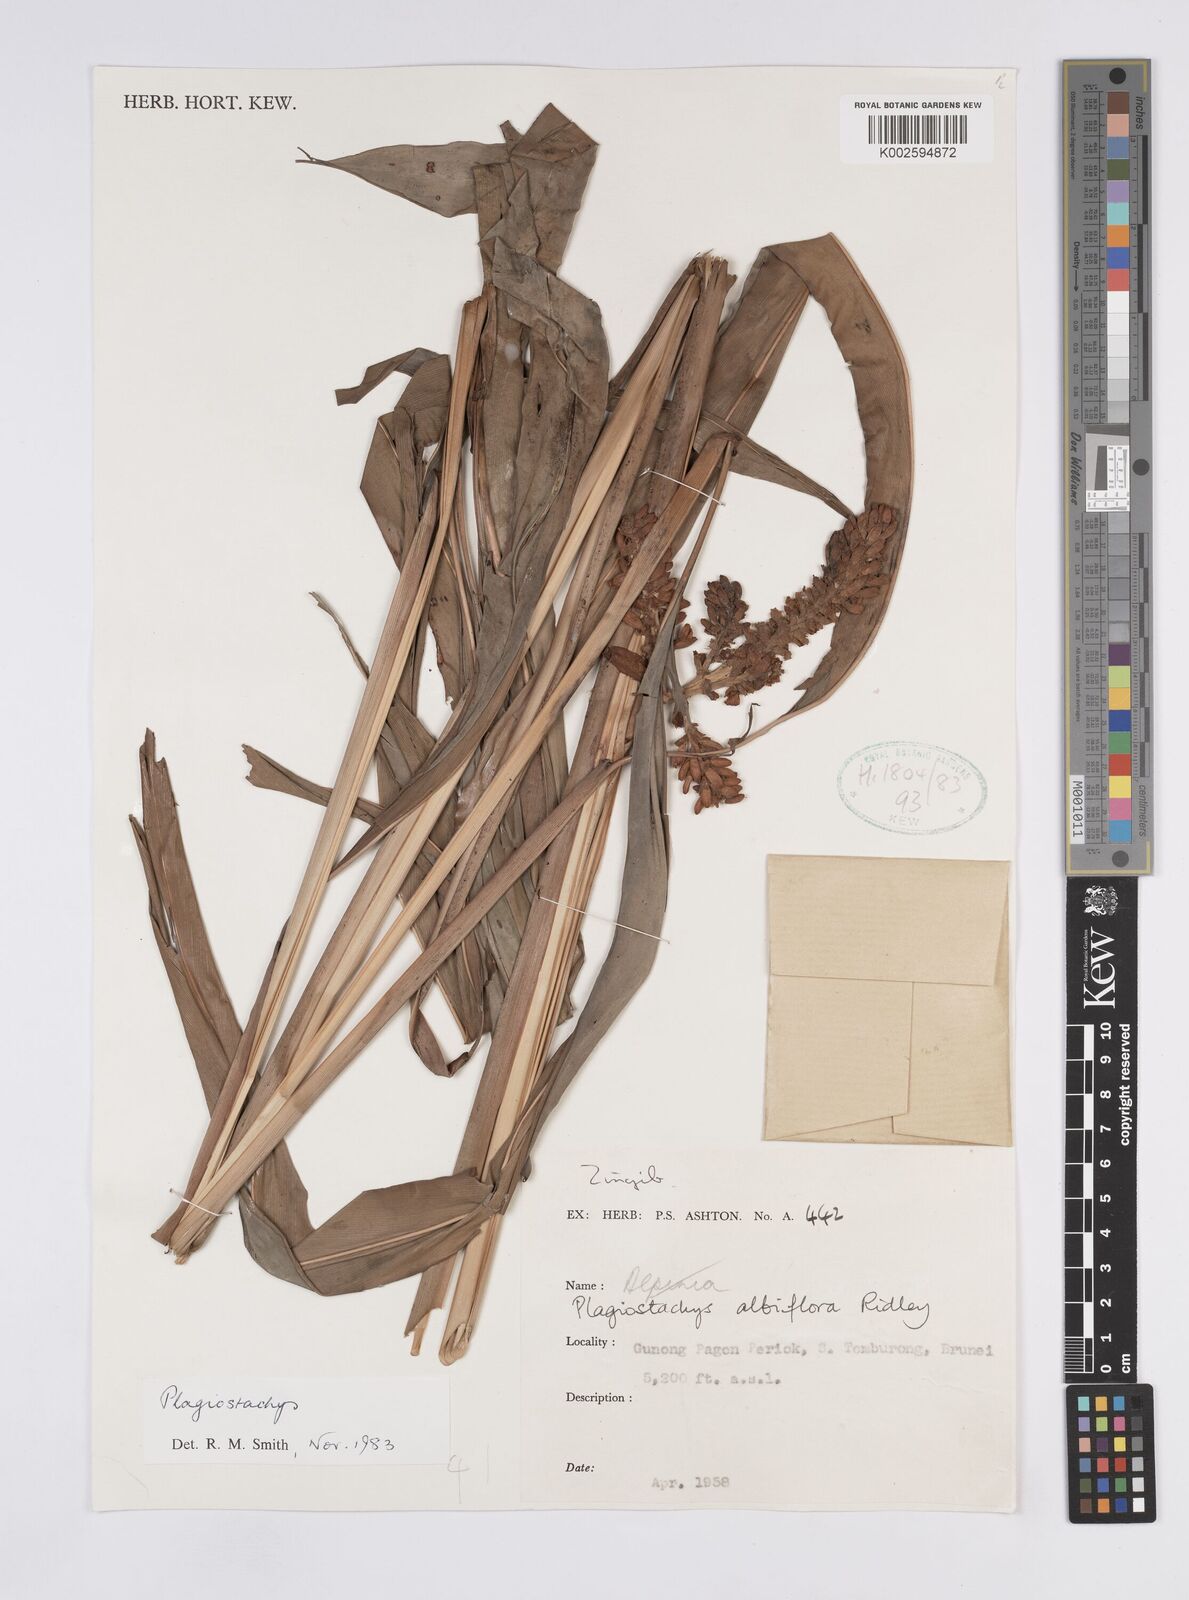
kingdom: Plantae
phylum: Tracheophyta
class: Liliopsida
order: Zingiberales
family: Zingiberaceae
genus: Plagiostachys
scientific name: Plagiostachys albiflora
